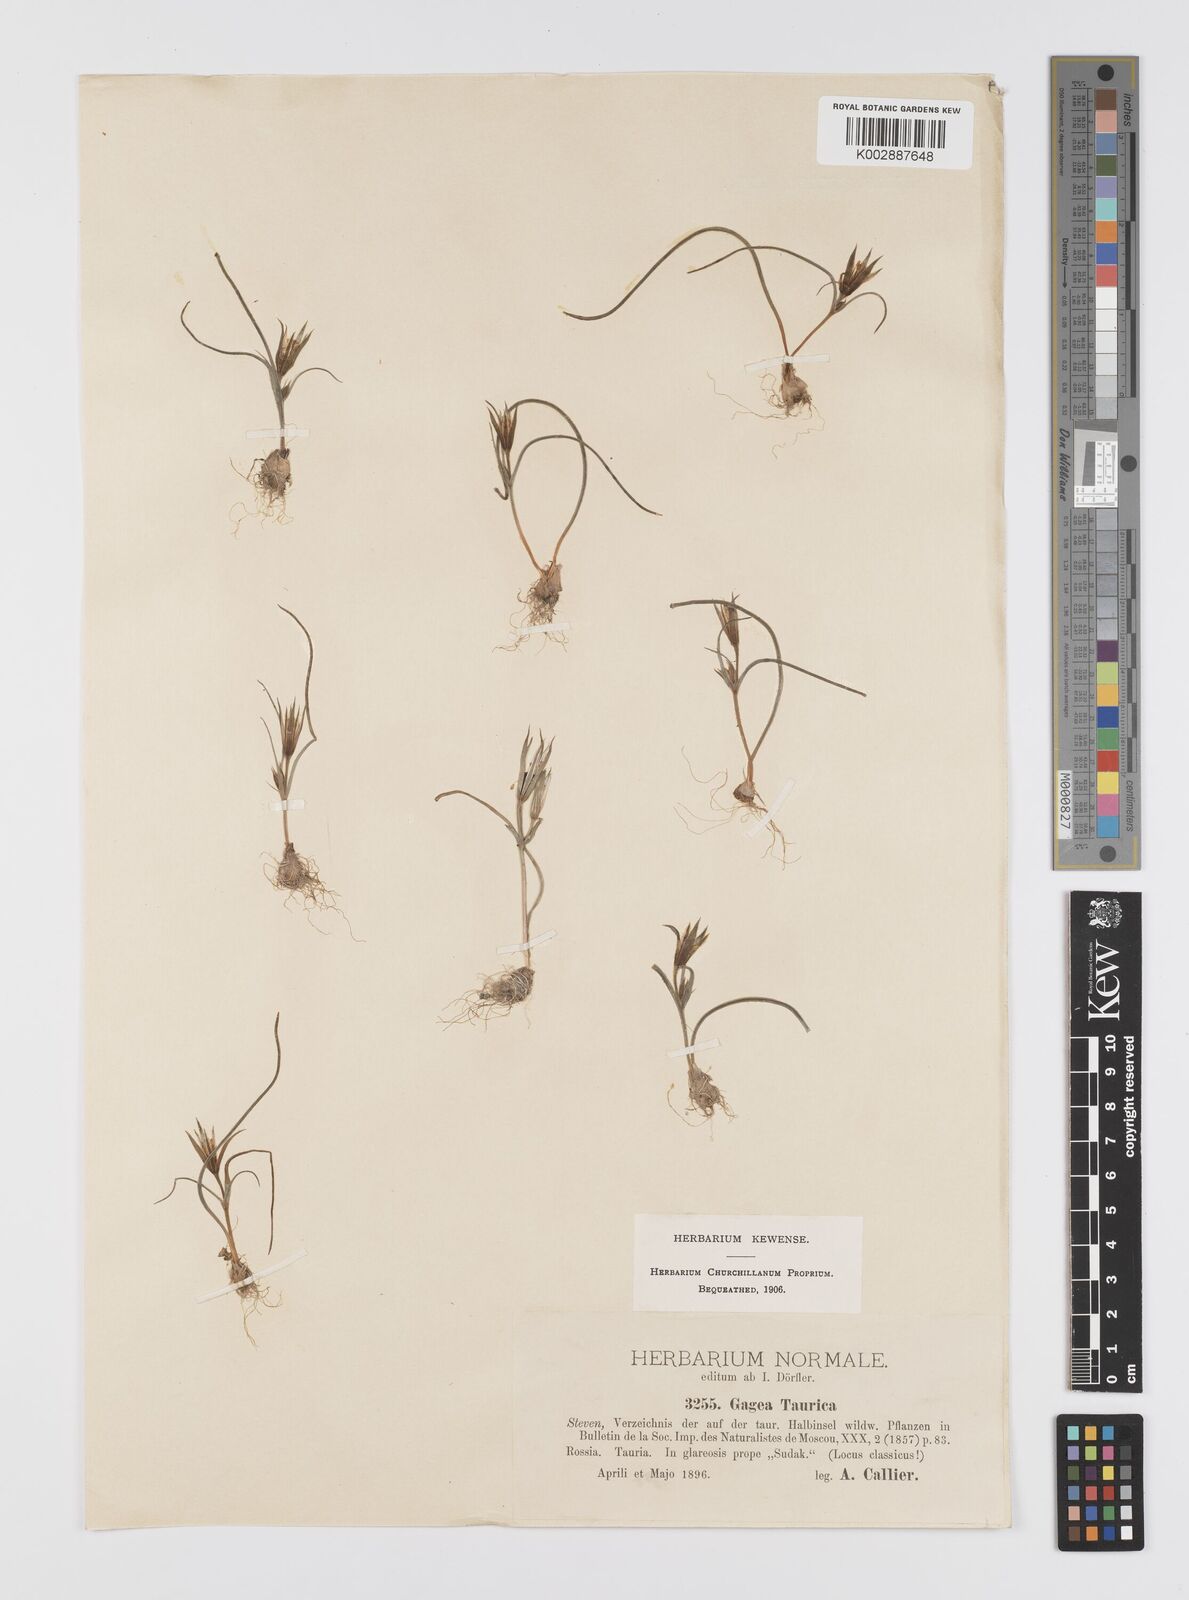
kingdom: Plantae
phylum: Tracheophyta
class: Liliopsida
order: Liliales
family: Liliaceae
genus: Gagea
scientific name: Gagea taurica
